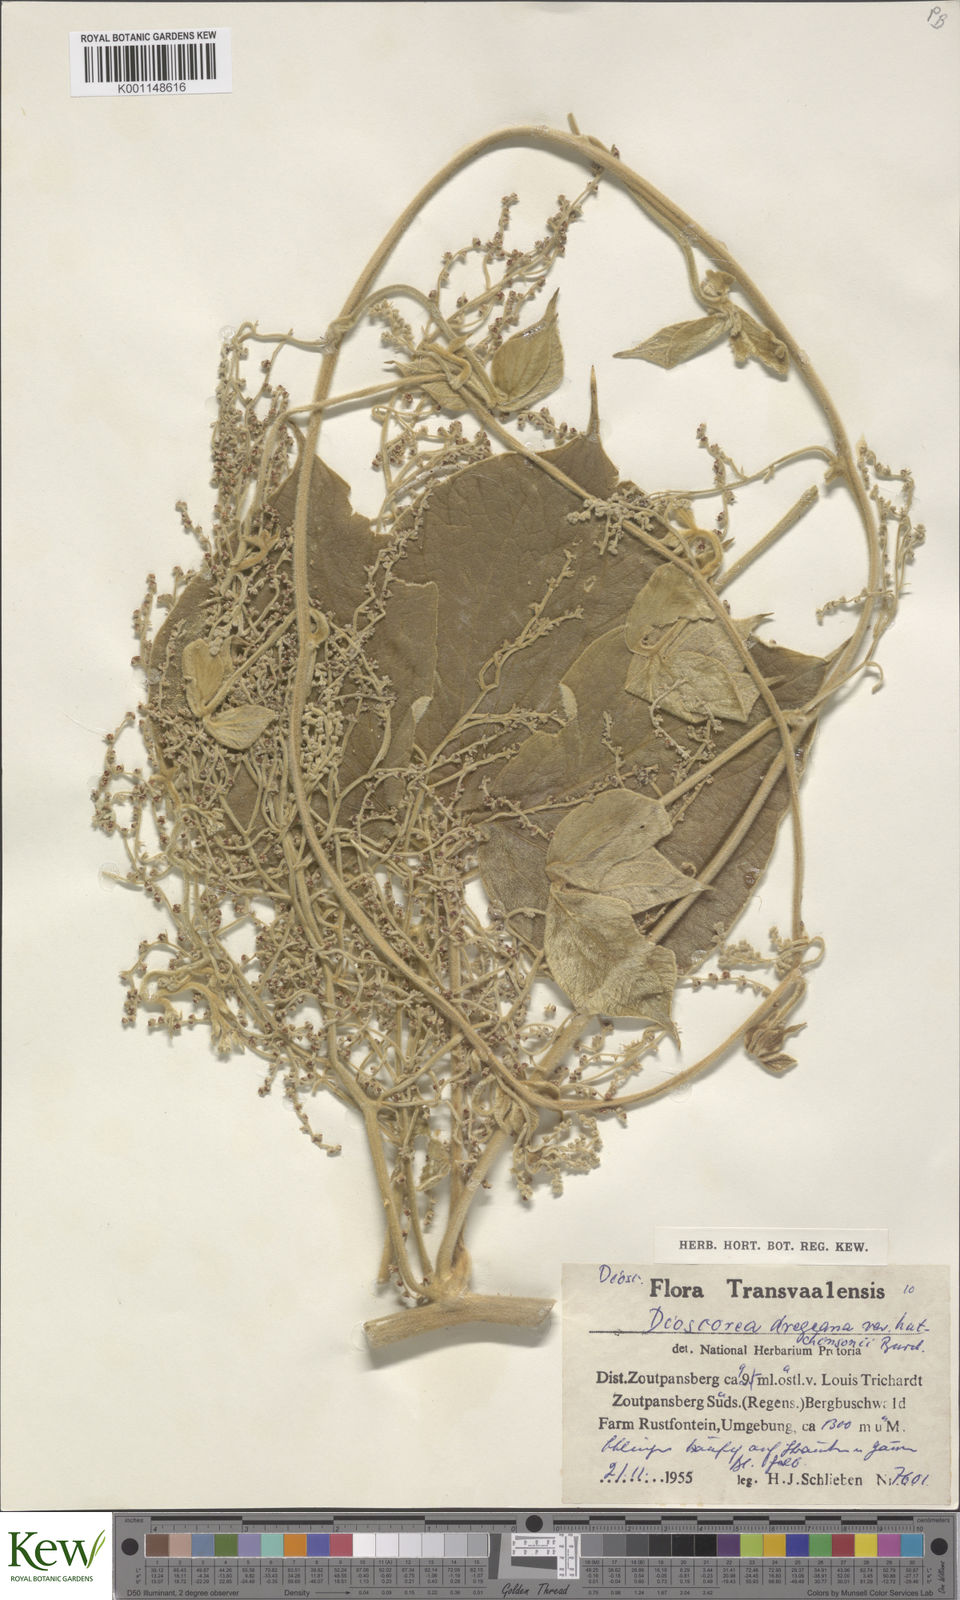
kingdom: Plantae
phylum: Tracheophyta
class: Liliopsida
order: Dioscoreales
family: Dioscoreaceae
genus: Dioscorea
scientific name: Dioscorea dregeana
